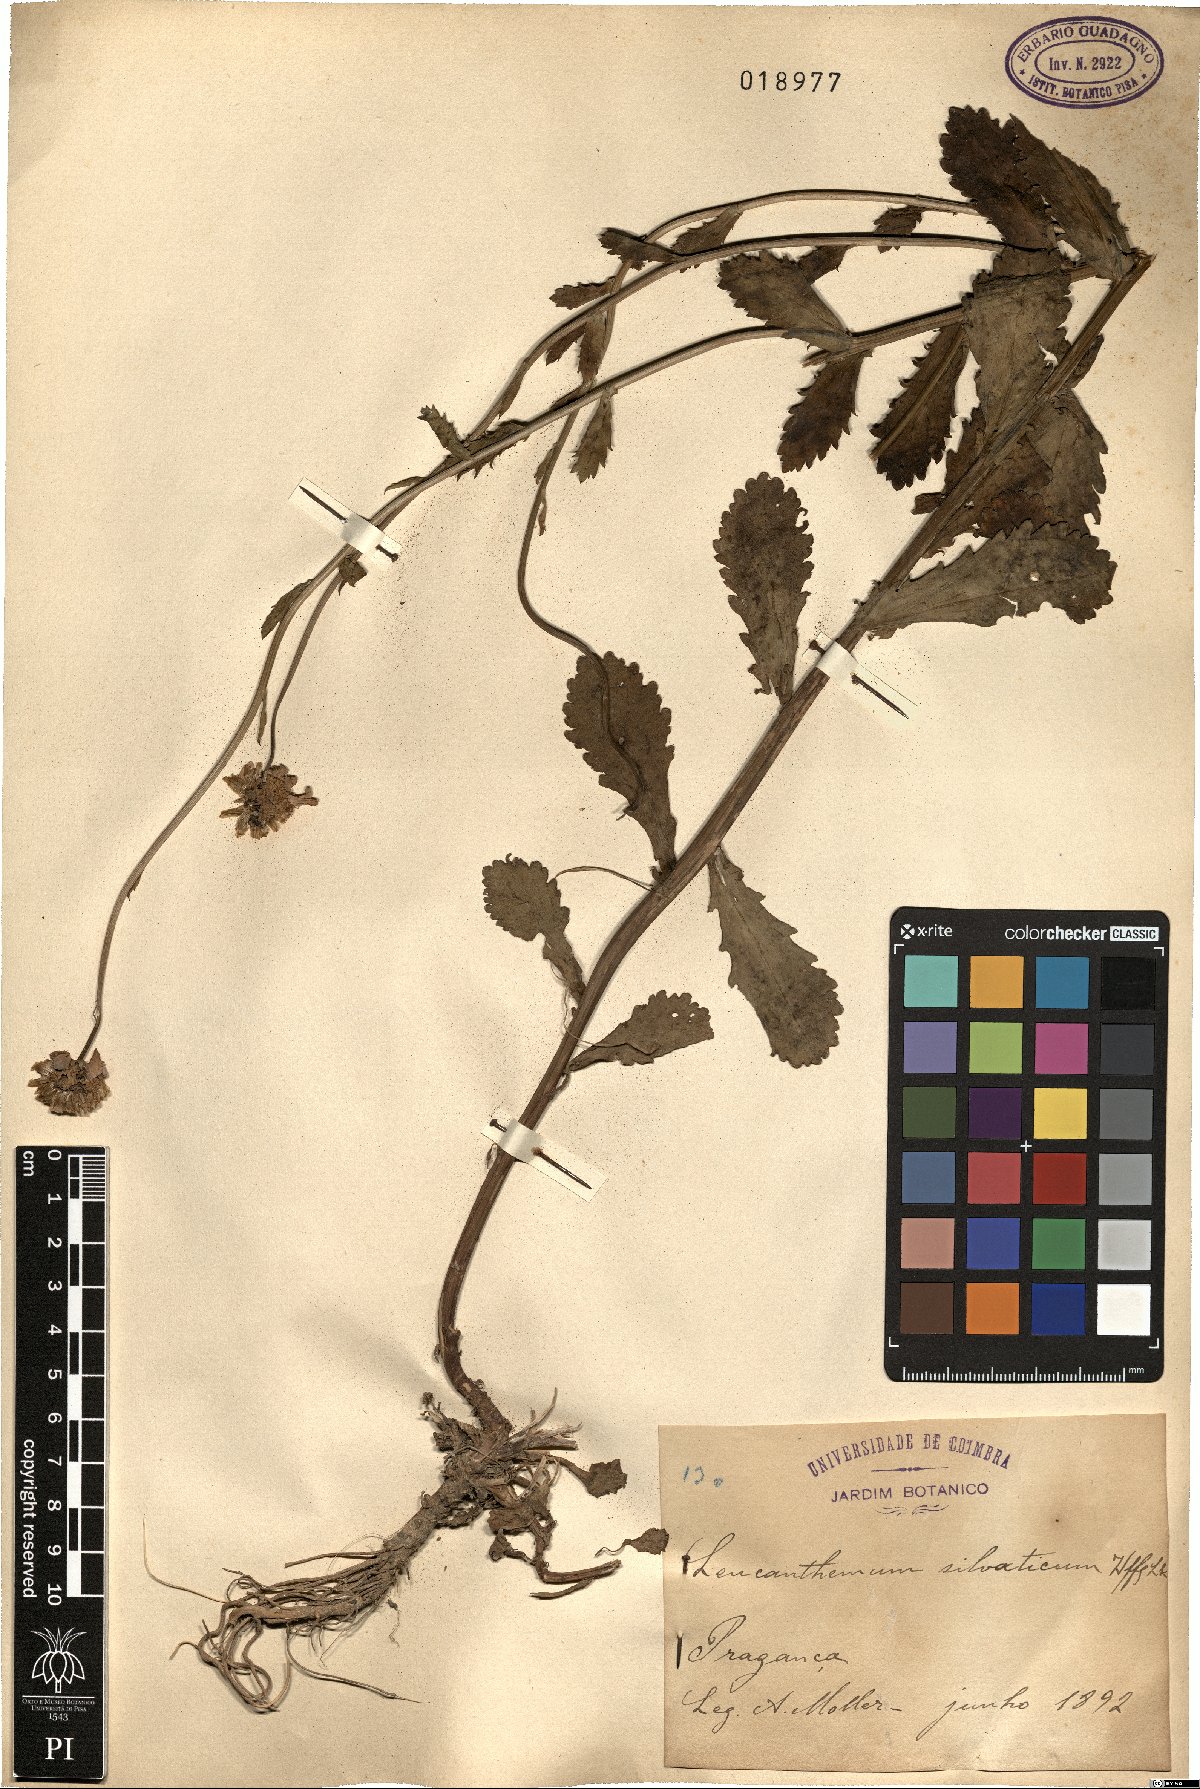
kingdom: Plantae
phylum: Tracheophyta
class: Magnoliopsida
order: Asterales
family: Asteraceae
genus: Leucanthemum
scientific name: Leucanthemum sylvaticum
